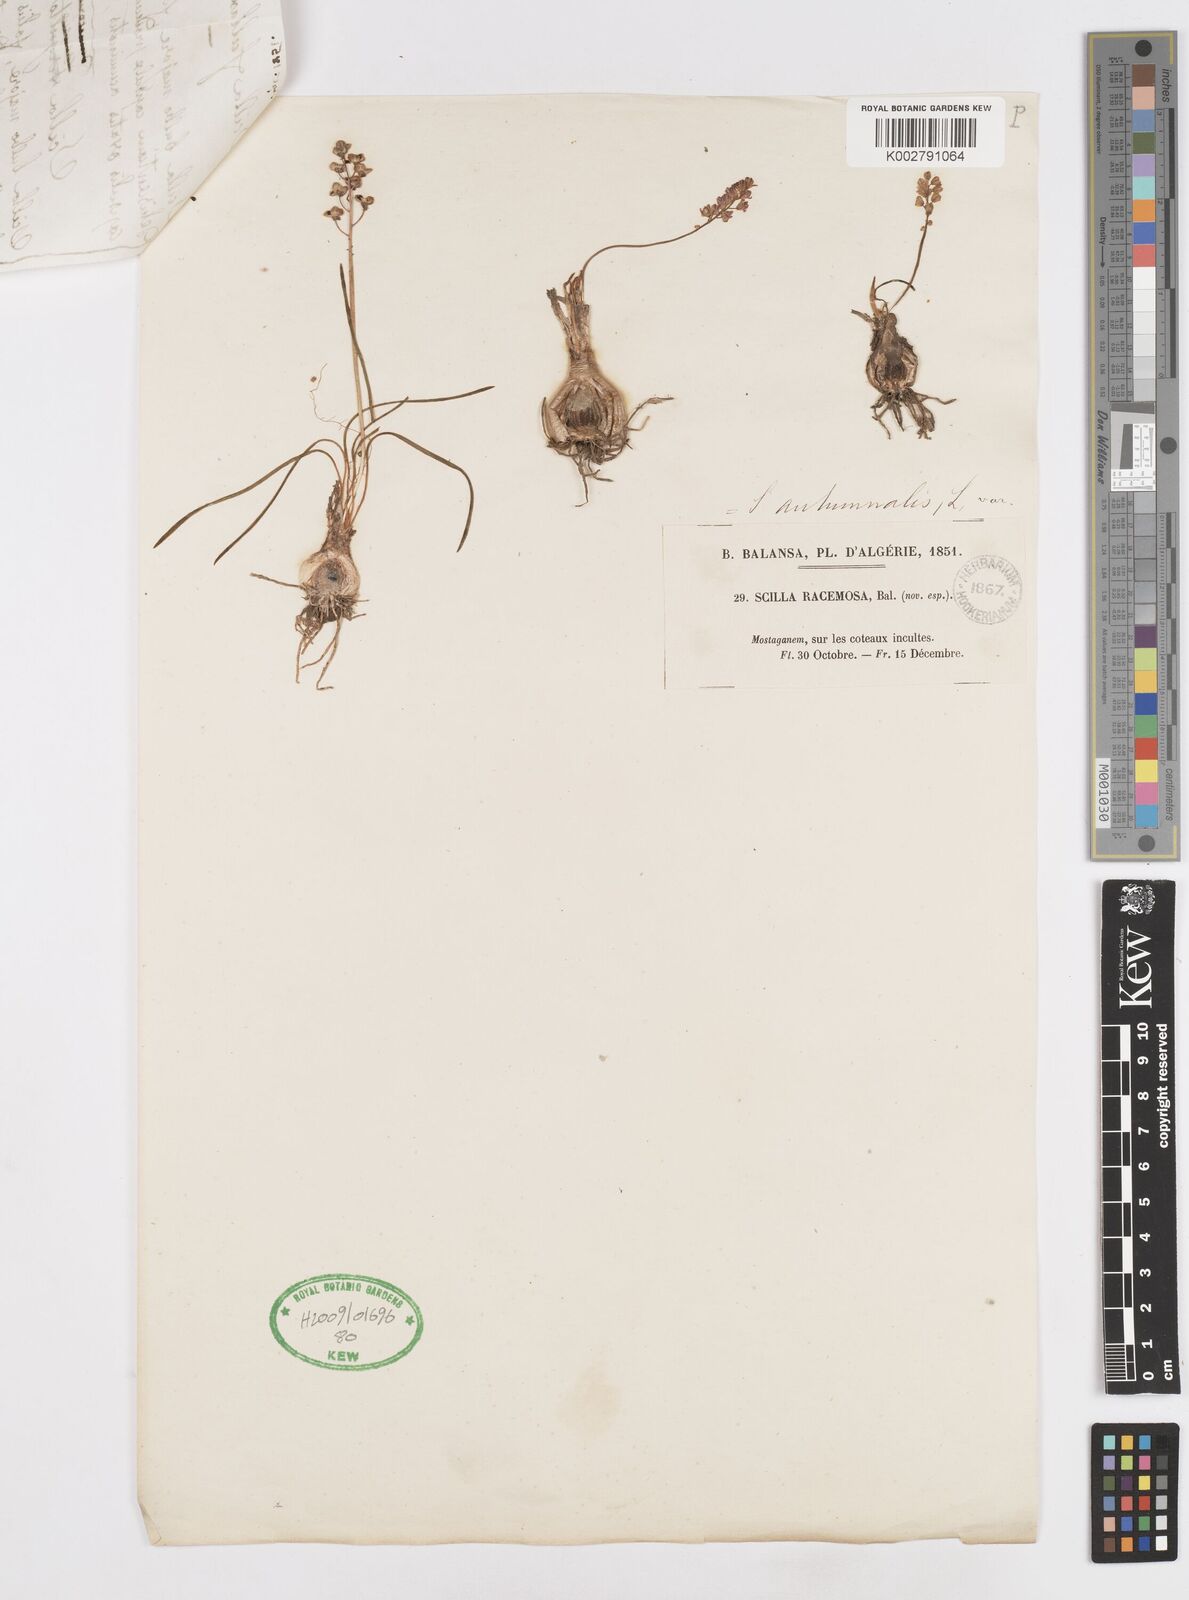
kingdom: Plantae
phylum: Tracheophyta
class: Liliopsida
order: Asparagales
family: Asparagaceae
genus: Prospero
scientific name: Prospero autumnale
